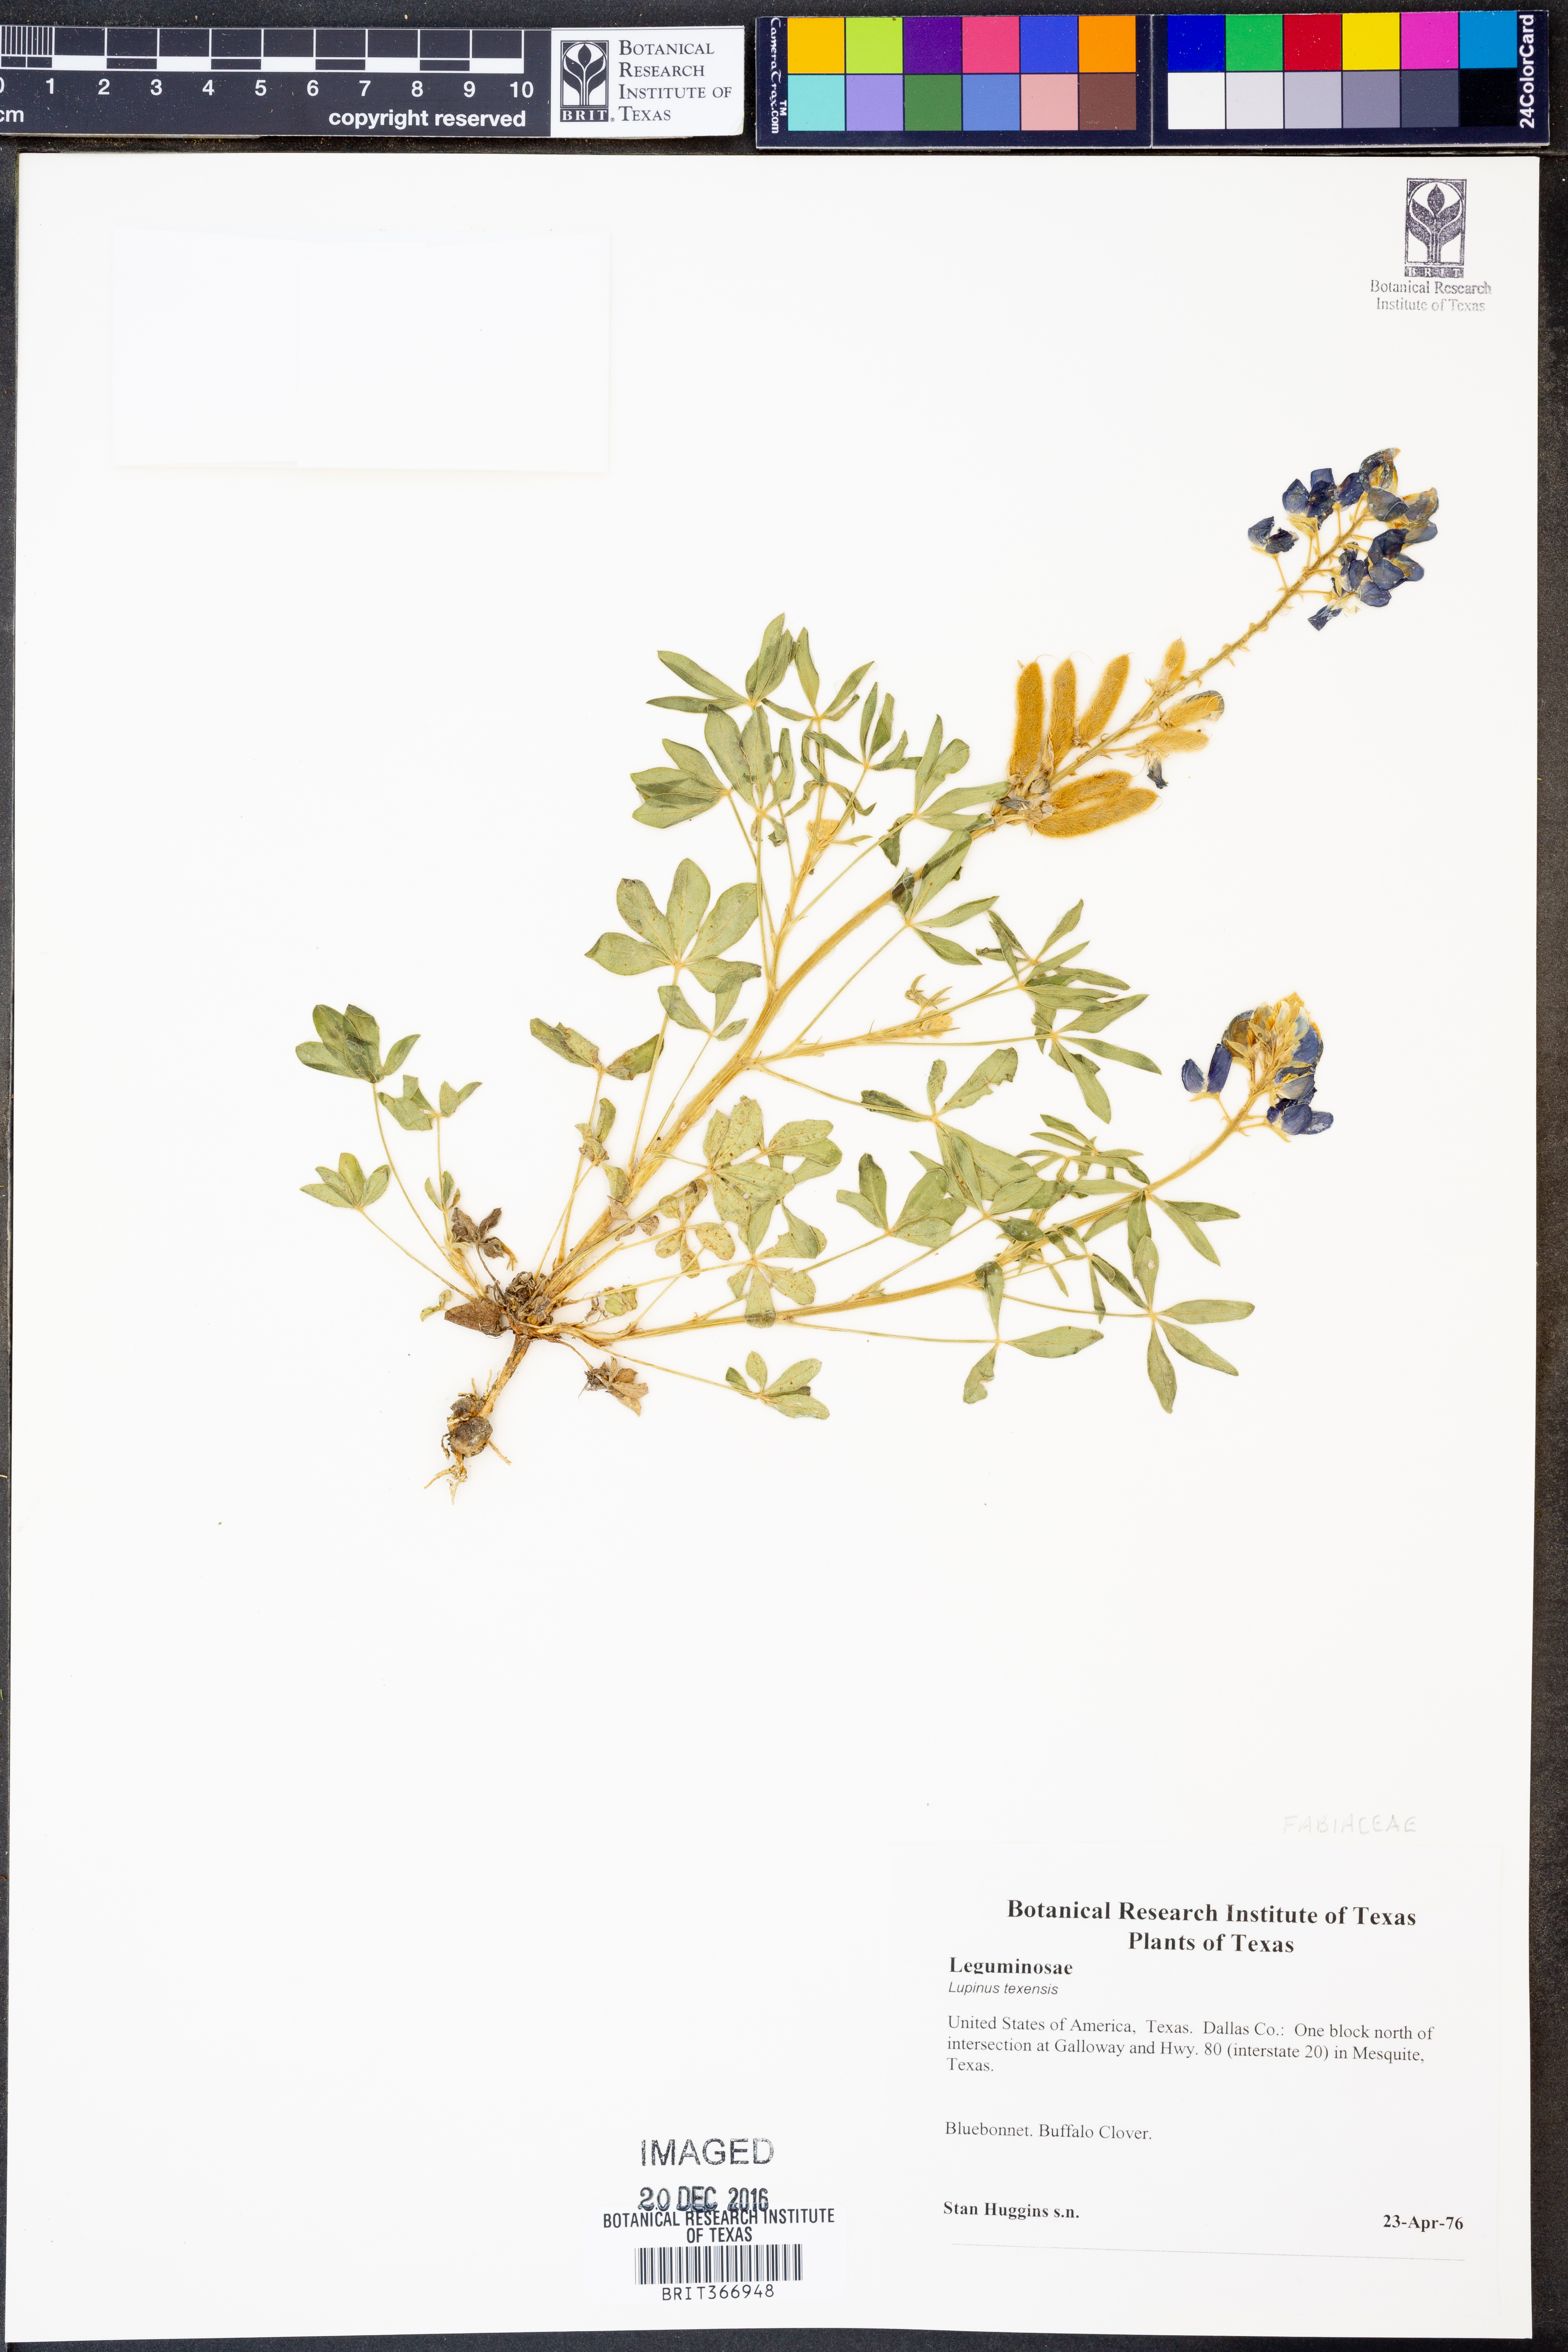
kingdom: Plantae
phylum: Tracheophyta
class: Magnoliopsida
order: Fabales
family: Fabaceae
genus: Lupinus
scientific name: Lupinus texensis
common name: Texas bluebonnet
